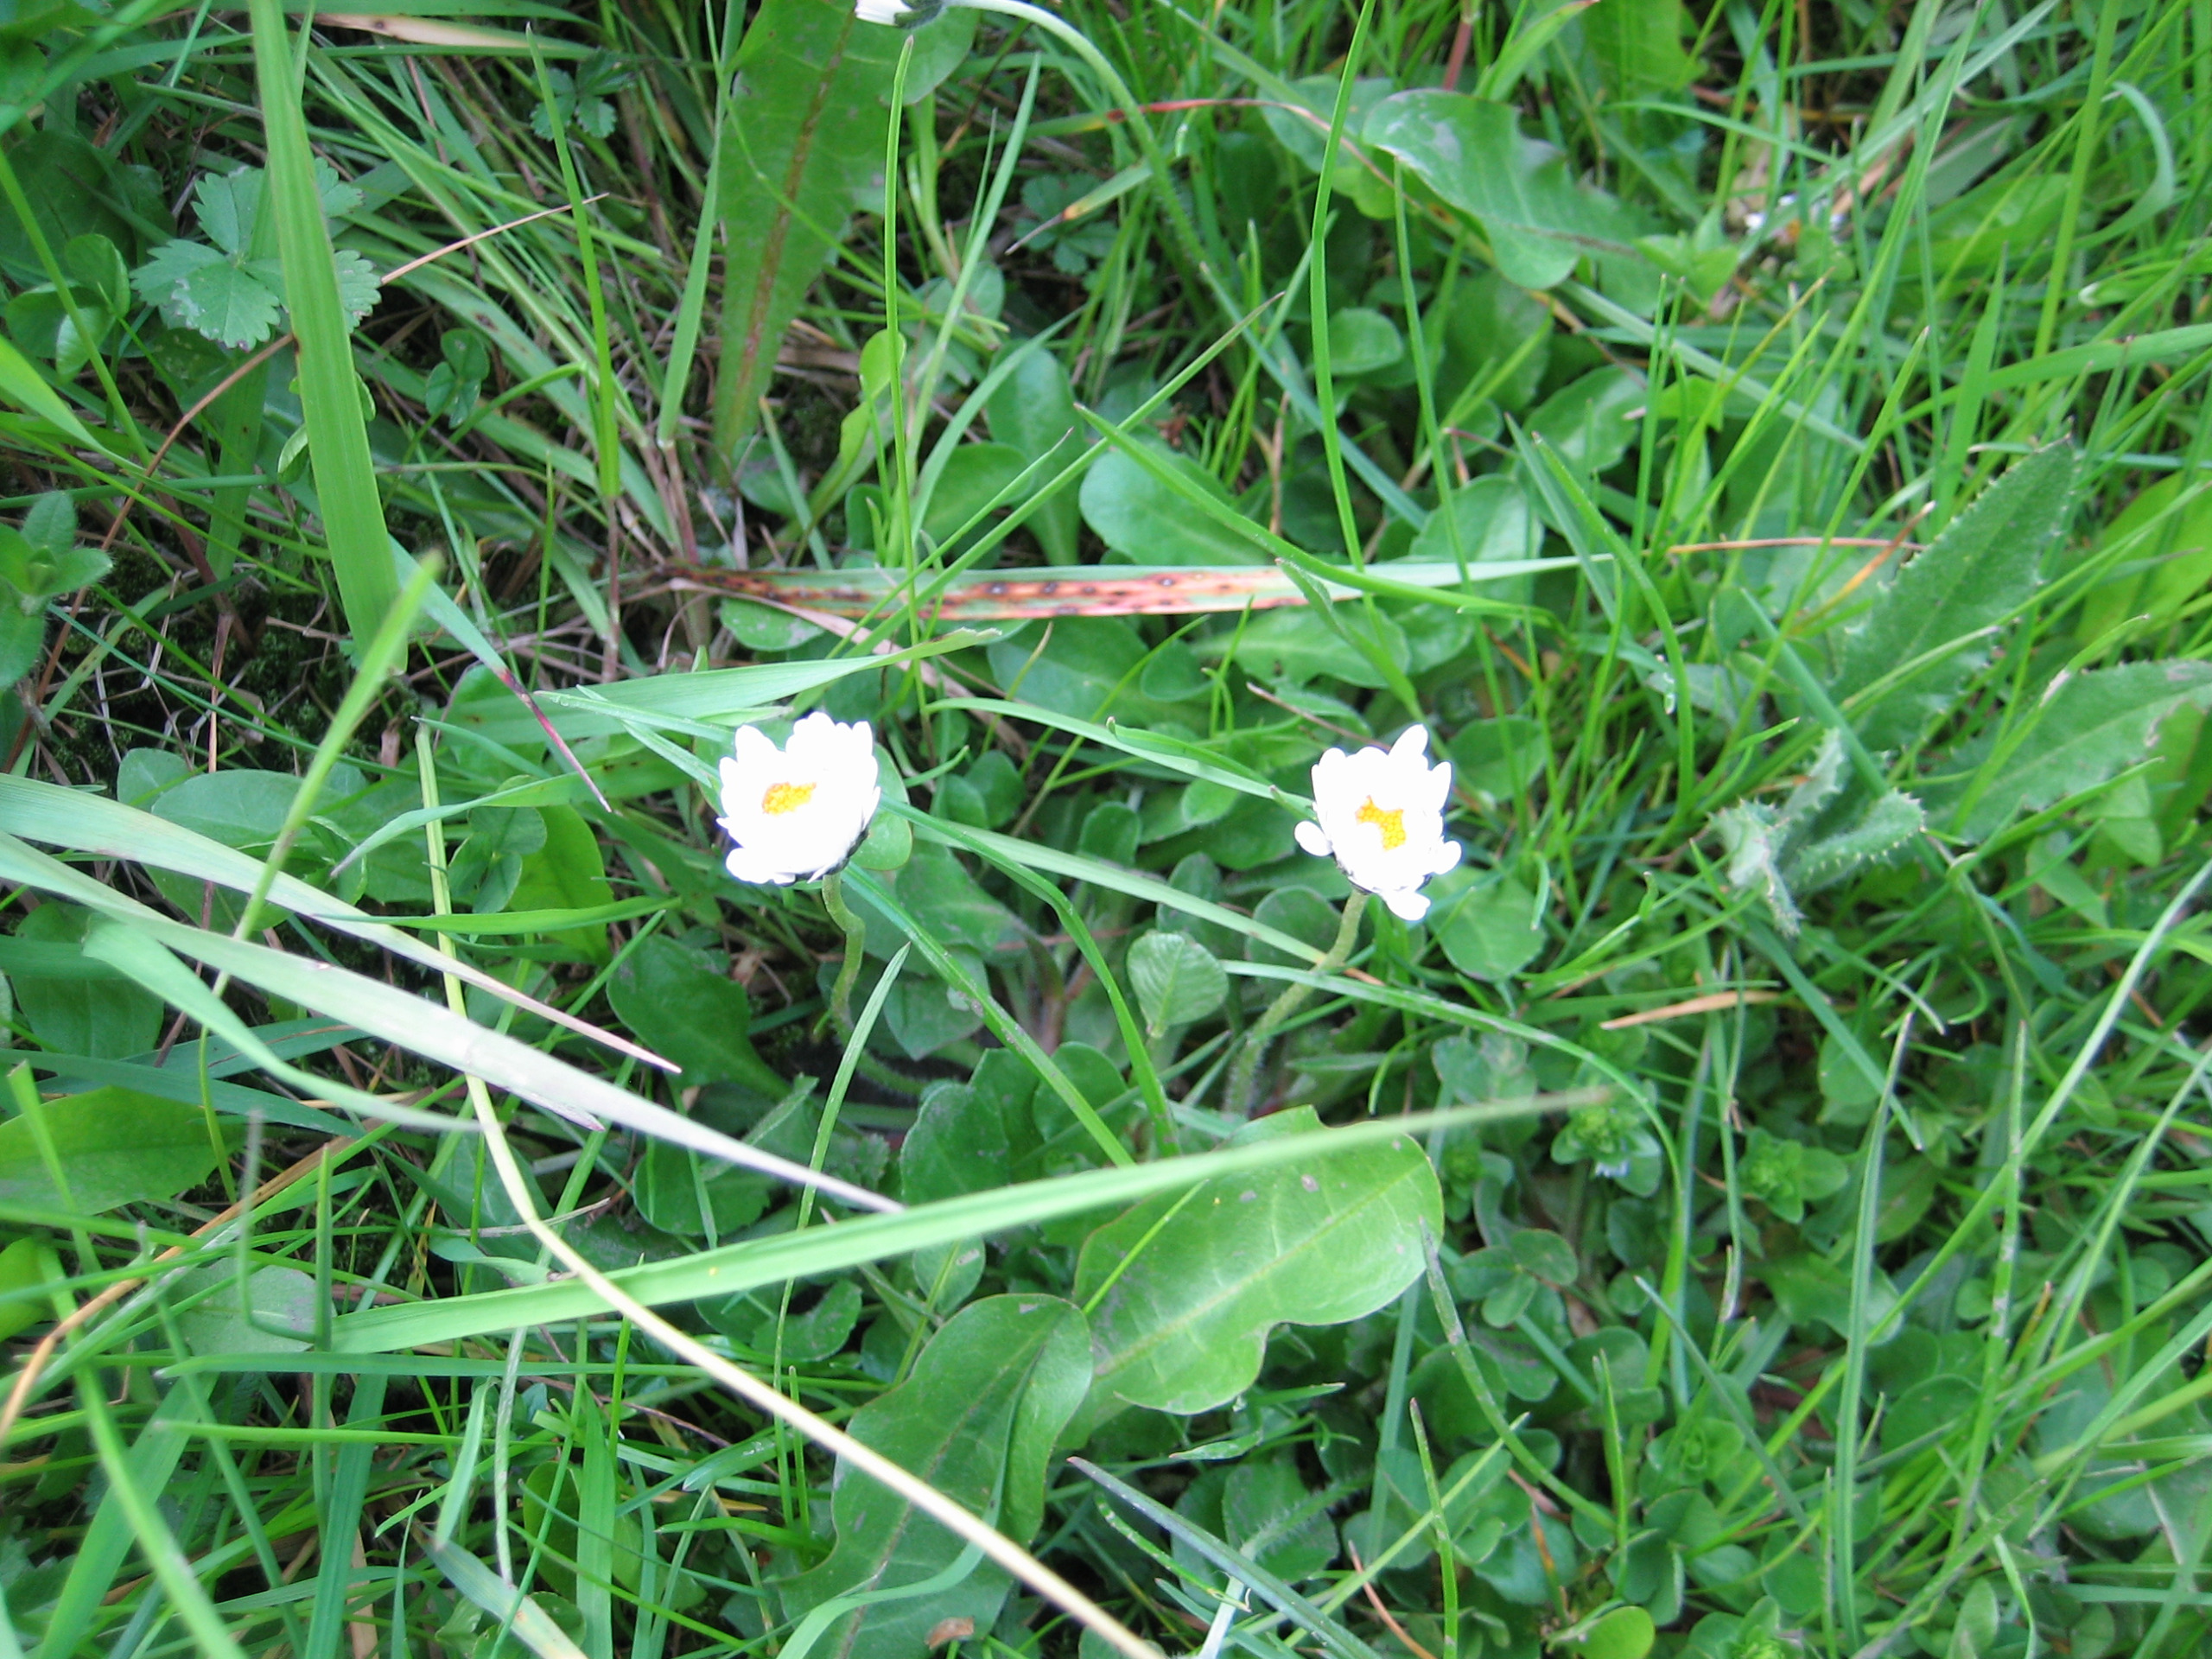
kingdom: Plantae
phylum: Tracheophyta
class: Magnoliopsida
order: Asterales
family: Asteraceae
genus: Bellis
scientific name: Bellis perennis
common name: Tusindfryd
